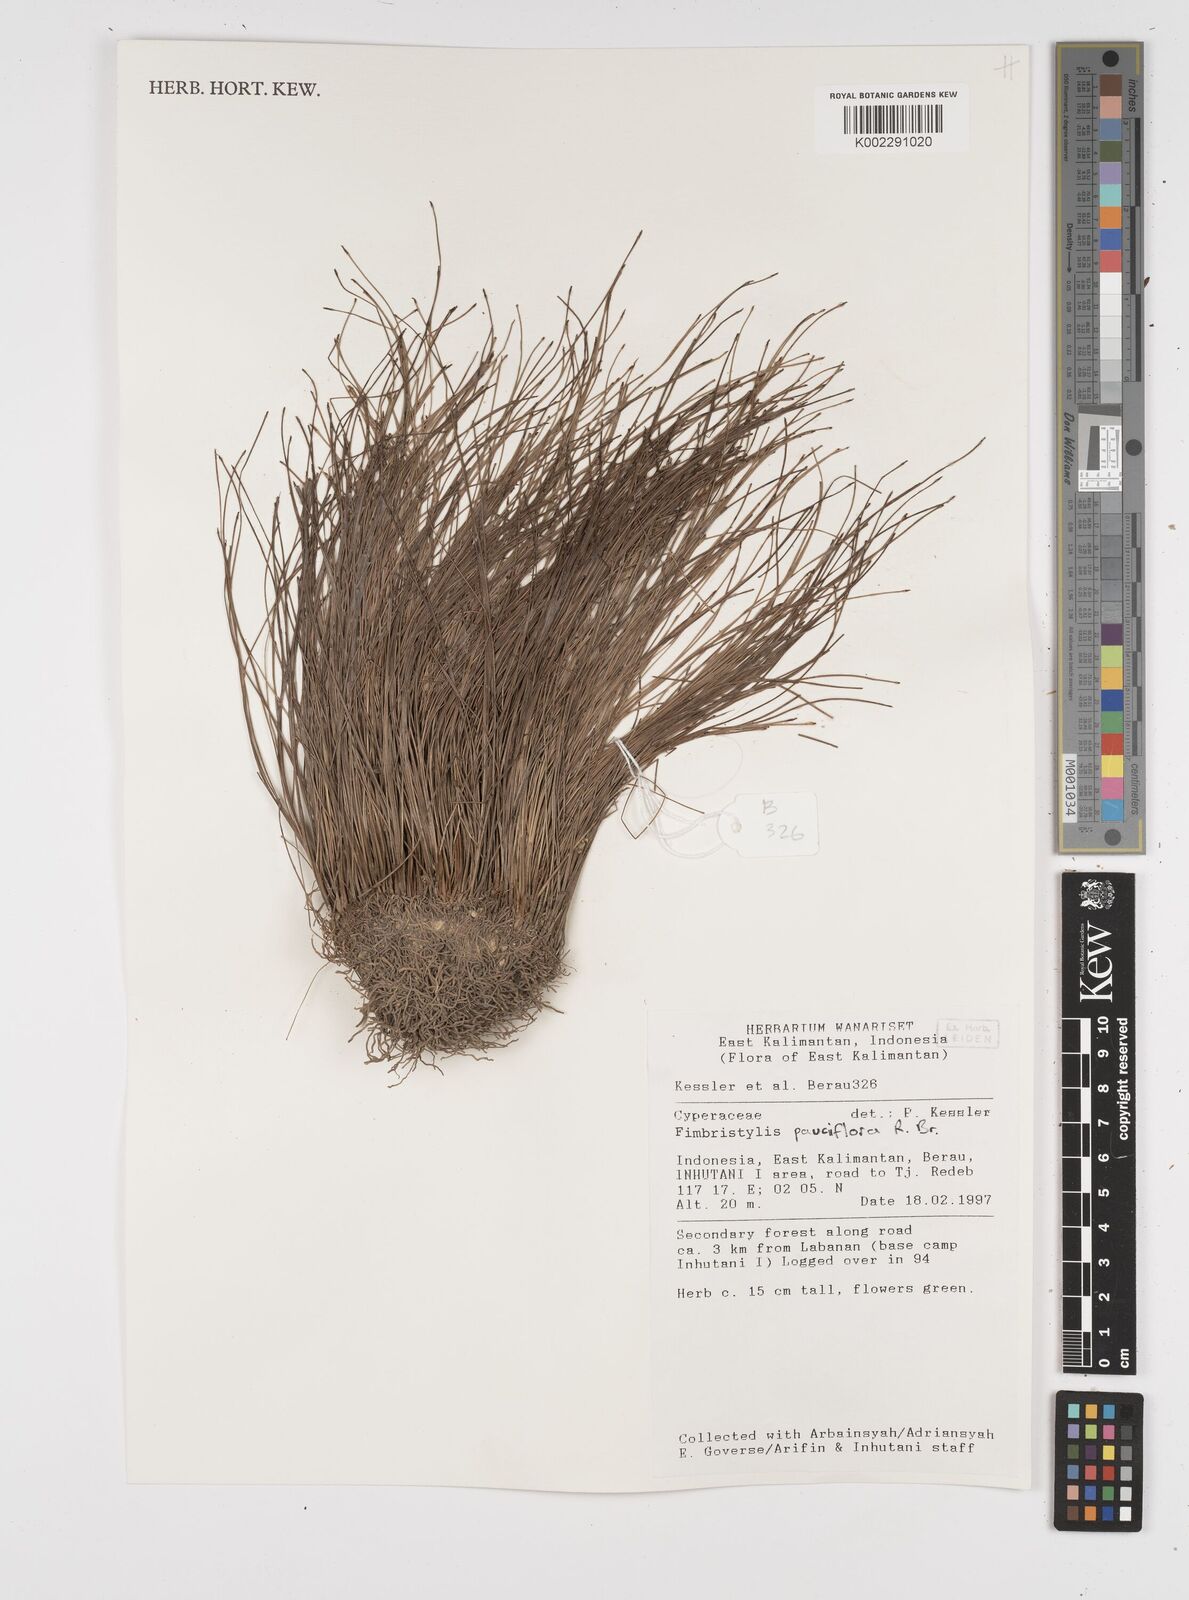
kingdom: Plantae
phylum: Tracheophyta
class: Liliopsida
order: Poales
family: Cyperaceae
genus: Fimbristylis
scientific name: Fimbristylis pauciflora
